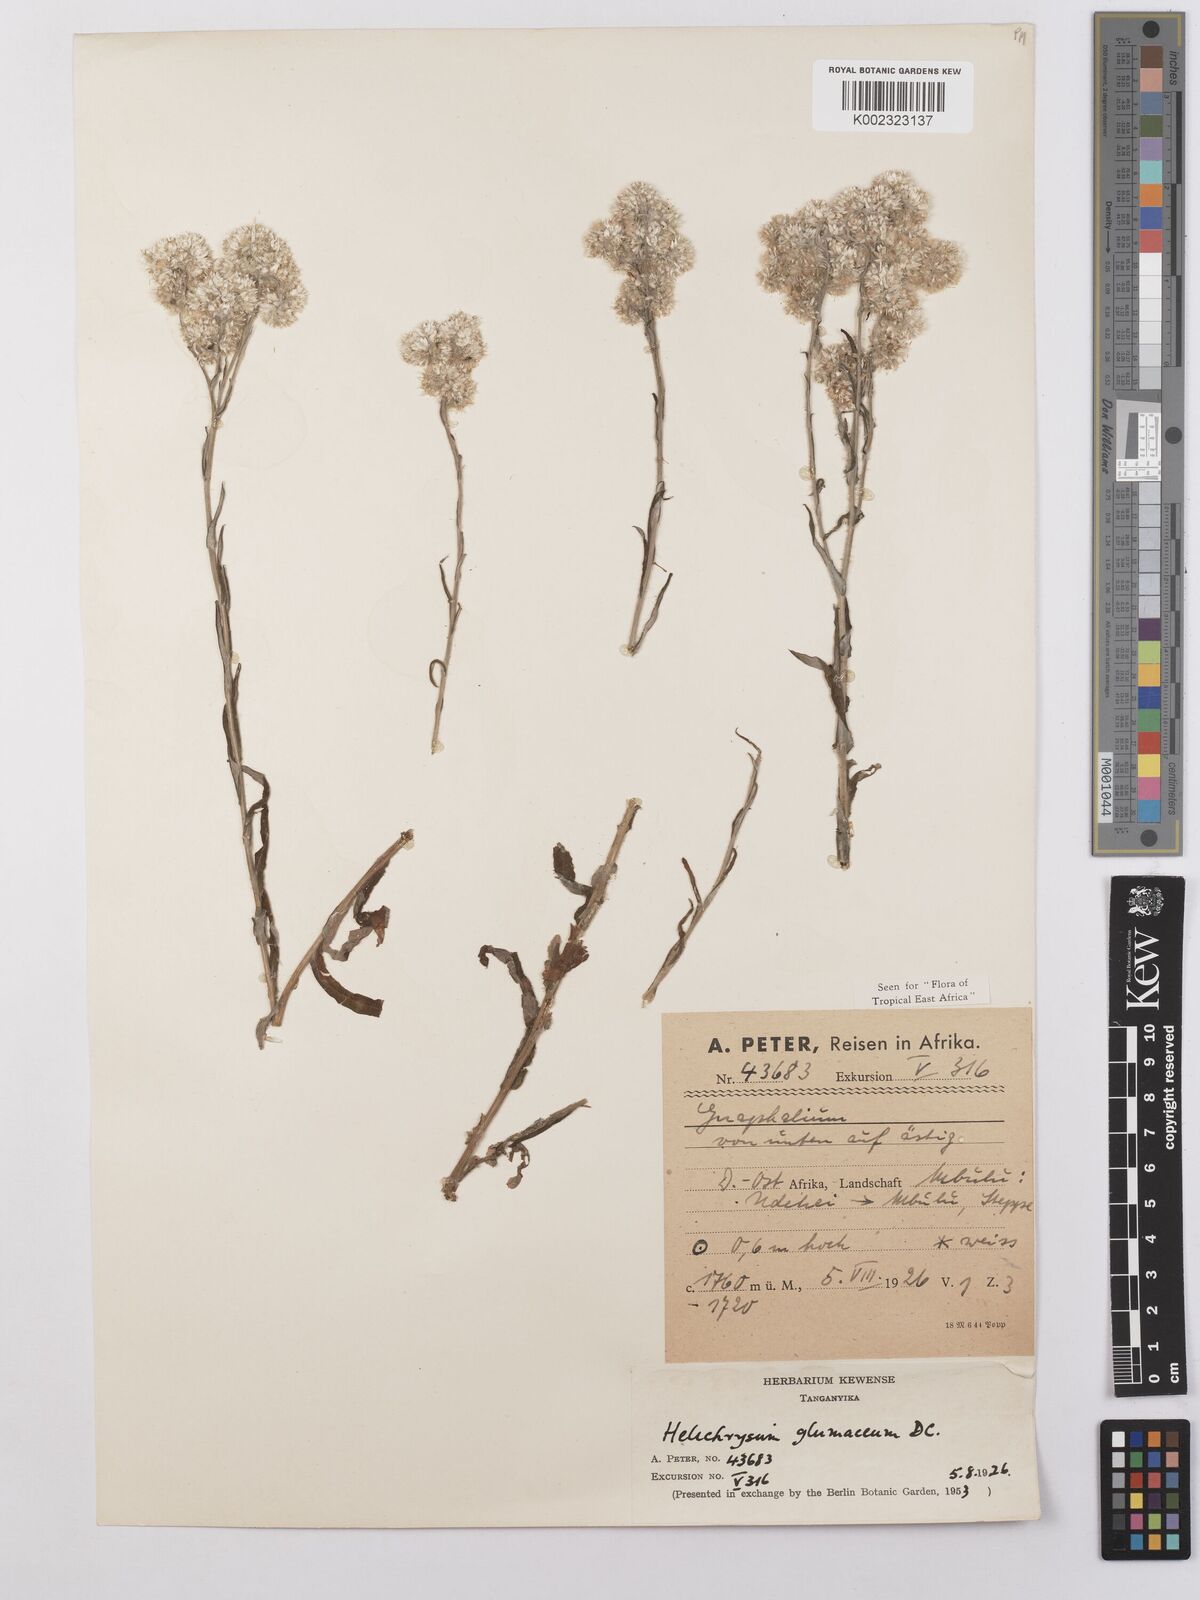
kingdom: Plantae
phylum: Tracheophyta
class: Magnoliopsida
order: Asterales
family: Asteraceae
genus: Helichrysum
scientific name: Helichrysum glumaceum
